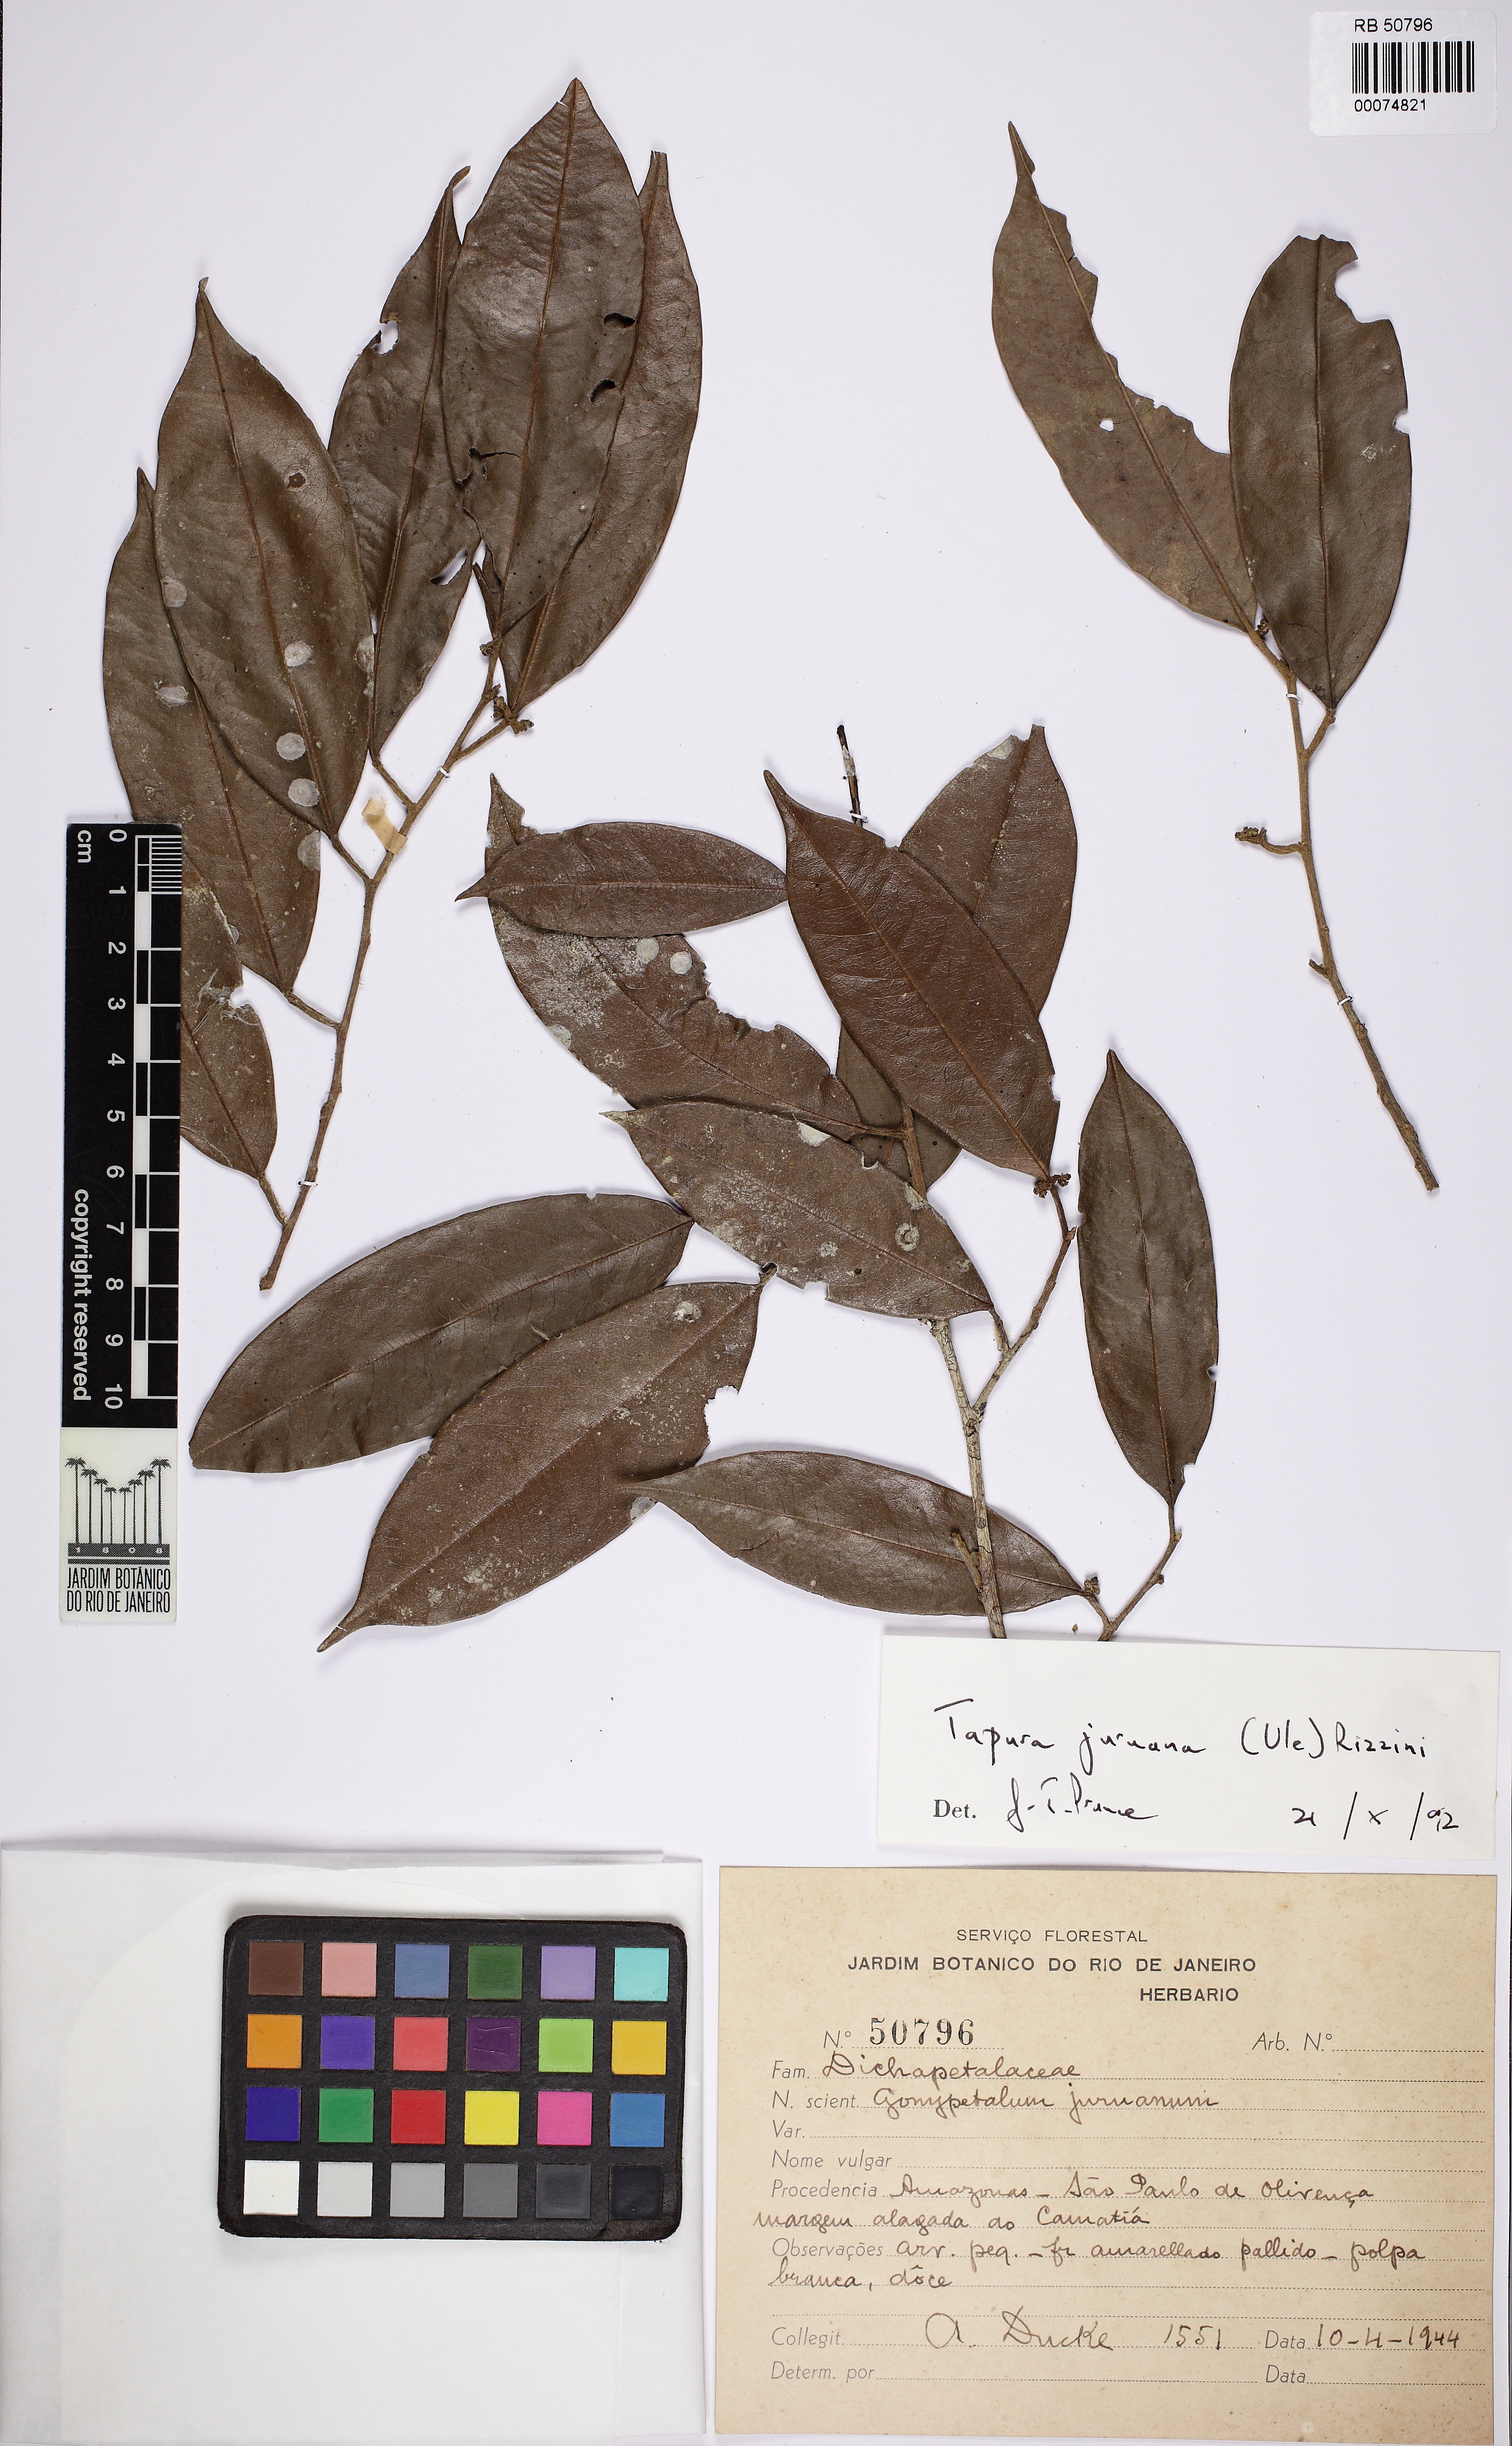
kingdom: Plantae
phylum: Tracheophyta
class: Magnoliopsida
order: Malpighiales
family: Dichapetalaceae
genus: Tapura
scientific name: Tapura juruana
